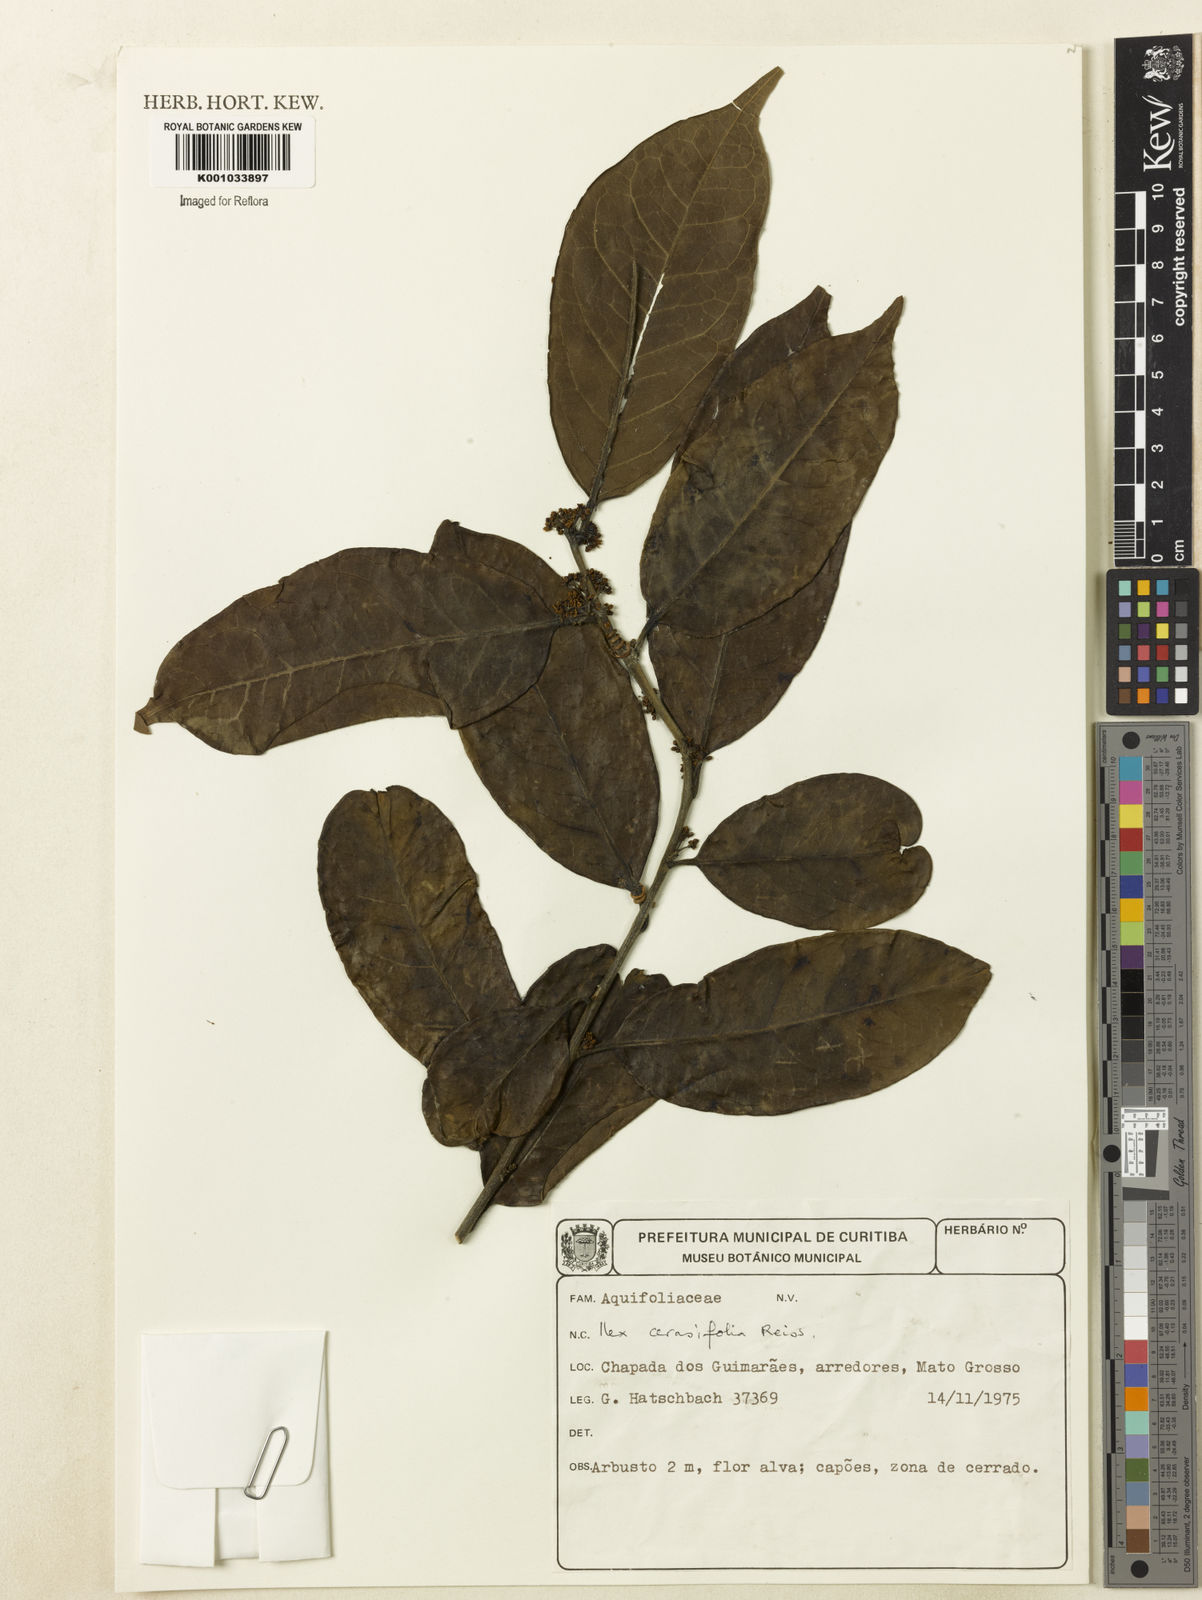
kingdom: Plantae
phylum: Tracheophyta
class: Magnoliopsida
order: Aquifoliales
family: Aquifoliaceae
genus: Ilex
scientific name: Ilex cerasifolia
